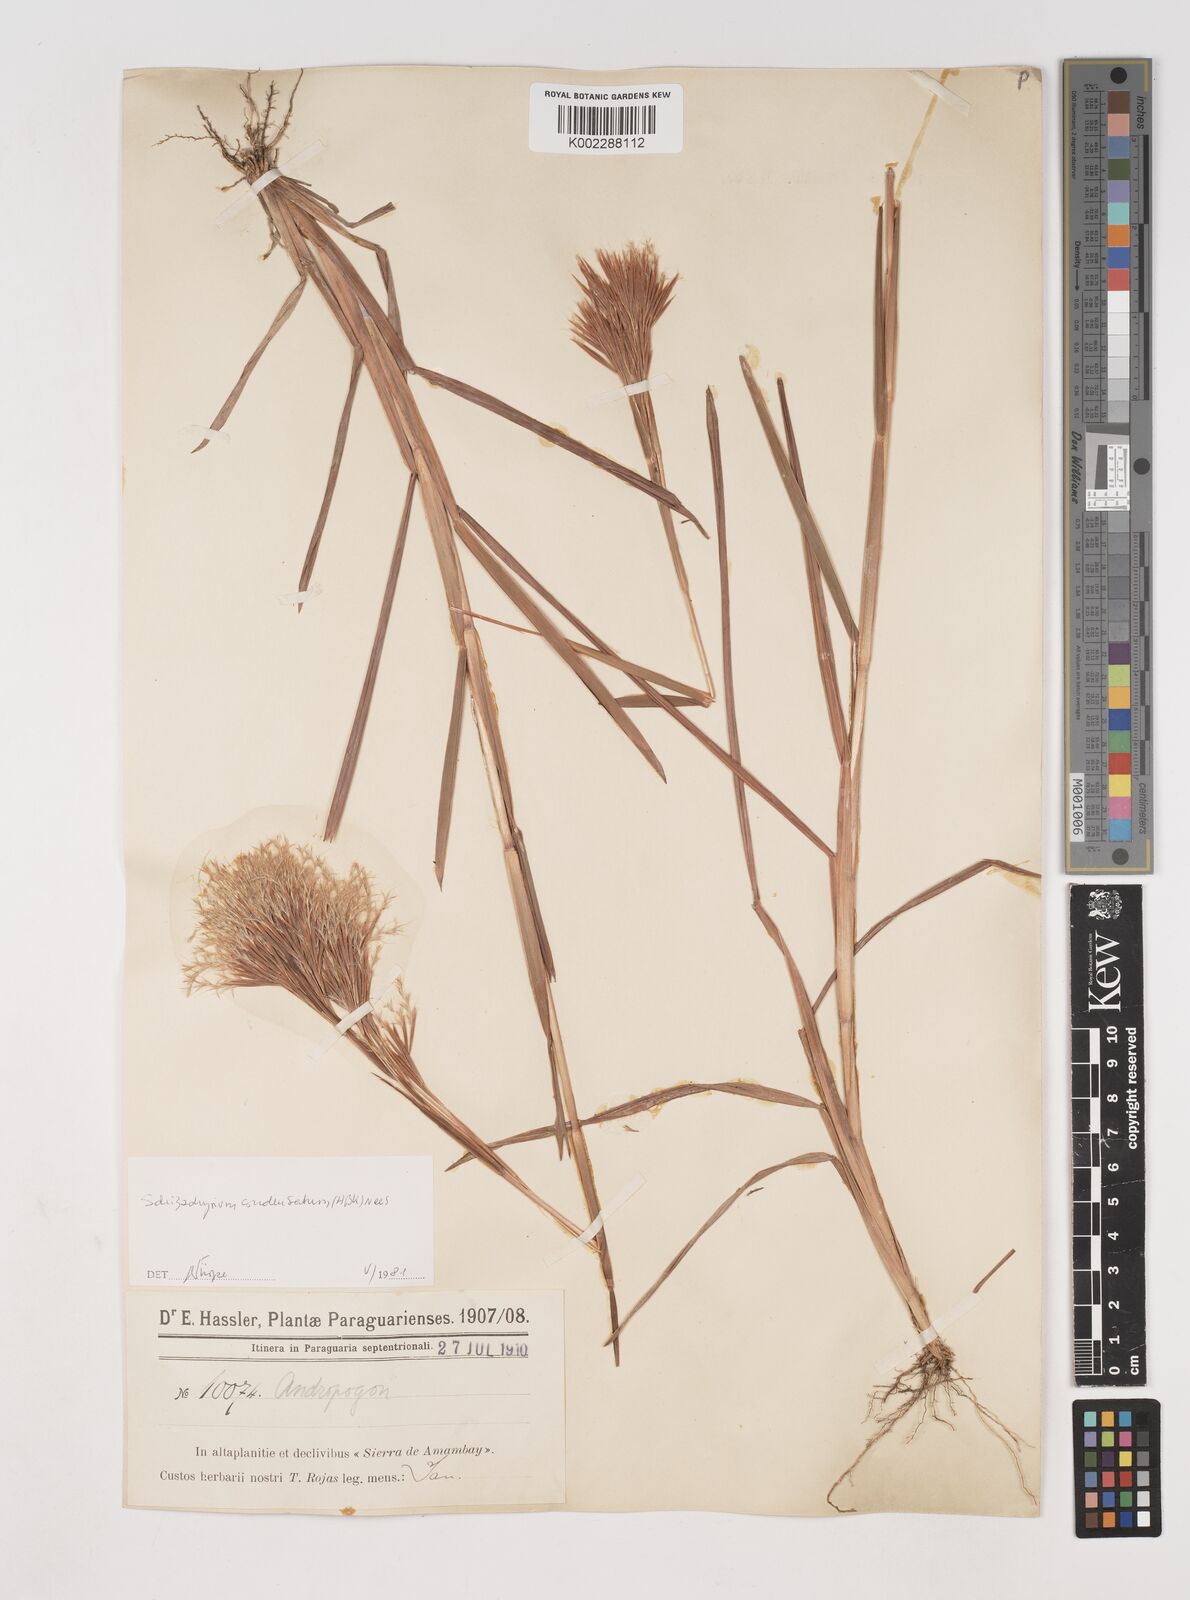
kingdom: Plantae
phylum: Tracheophyta
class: Liliopsida
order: Poales
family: Poaceae
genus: Schizachyrium
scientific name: Schizachyrium condensatum
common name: Bush beardgrass
